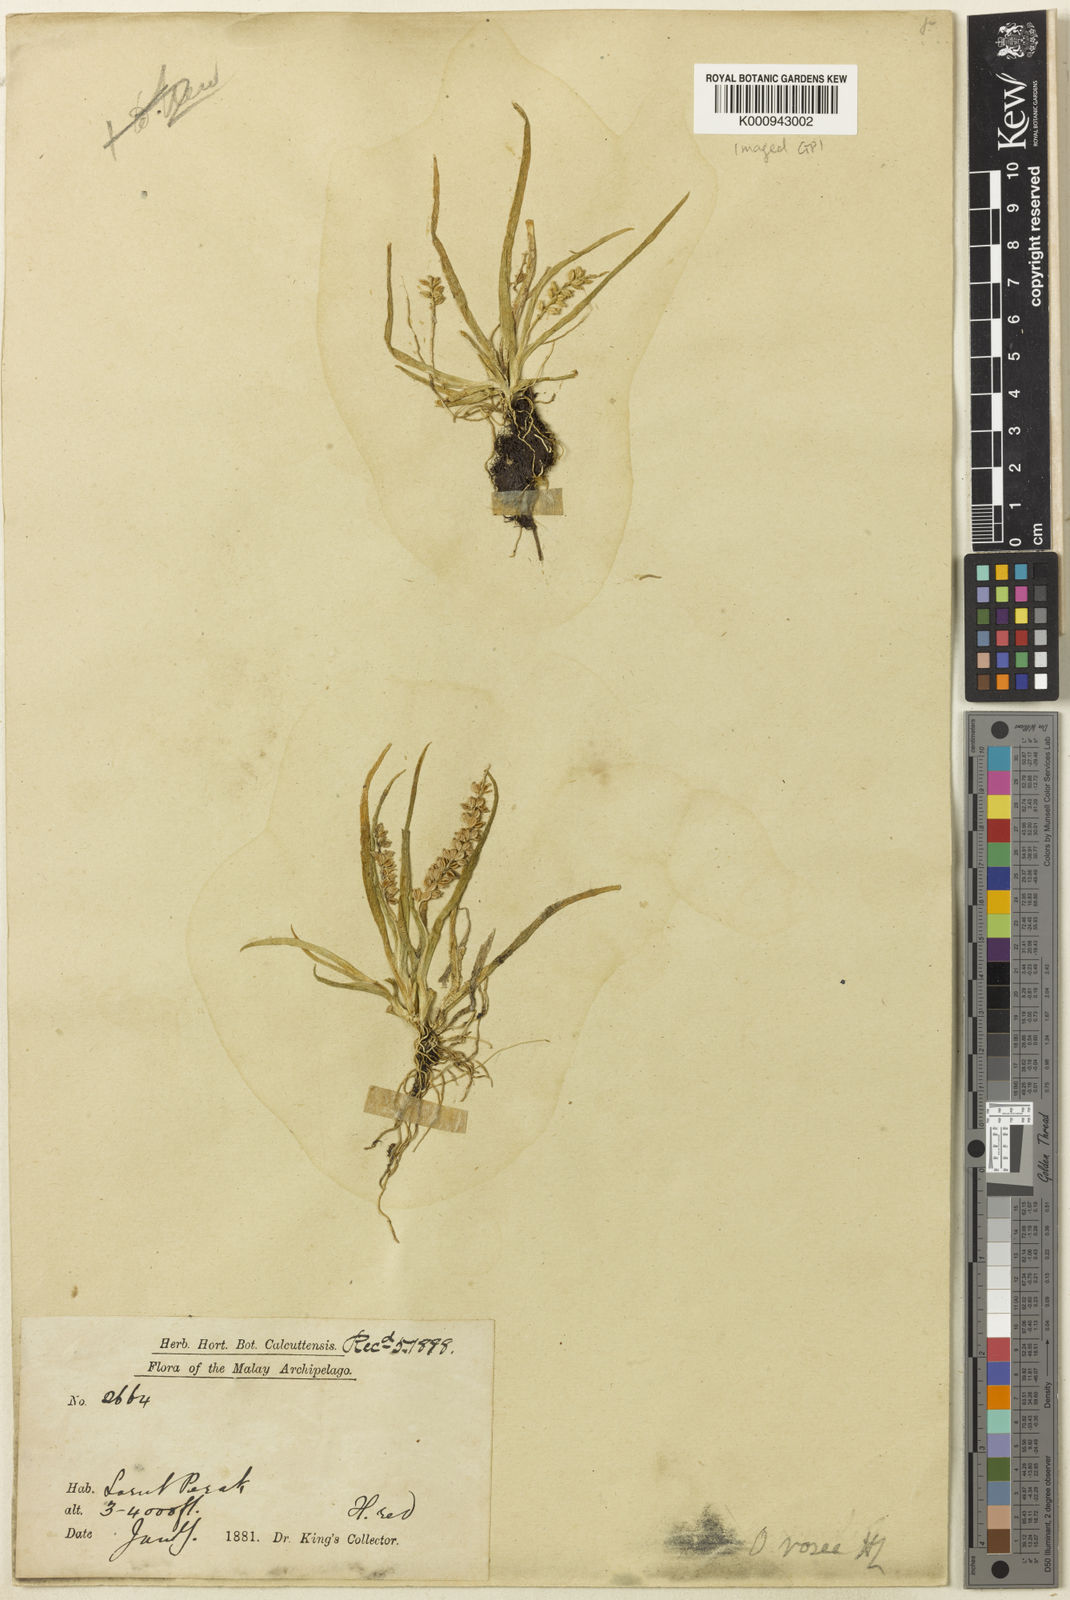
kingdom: Plantae
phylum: Tracheophyta
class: Liliopsida
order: Asparagales
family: Orchidaceae
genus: Oberonia
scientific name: Oberonia microphylla
